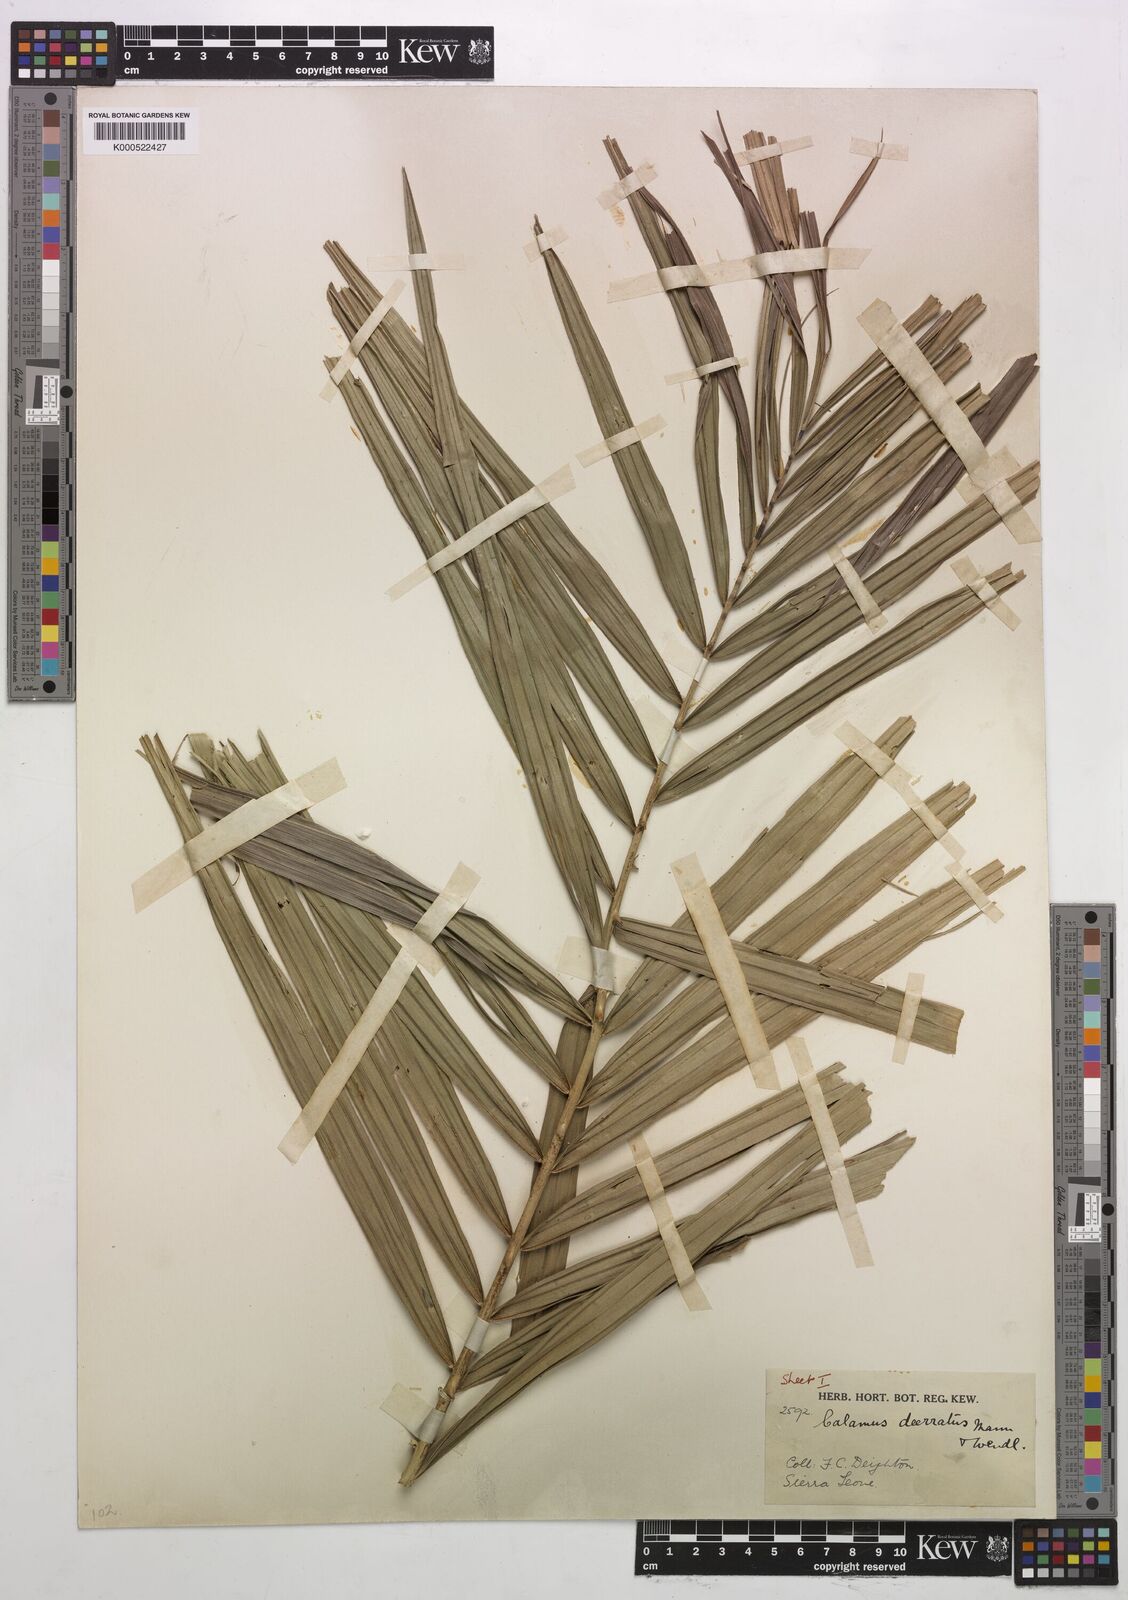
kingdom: Plantae
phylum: Tracheophyta
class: Liliopsida
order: Arecales
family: Arecaceae
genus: Calamus
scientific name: Calamus deerratus
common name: Rattan
